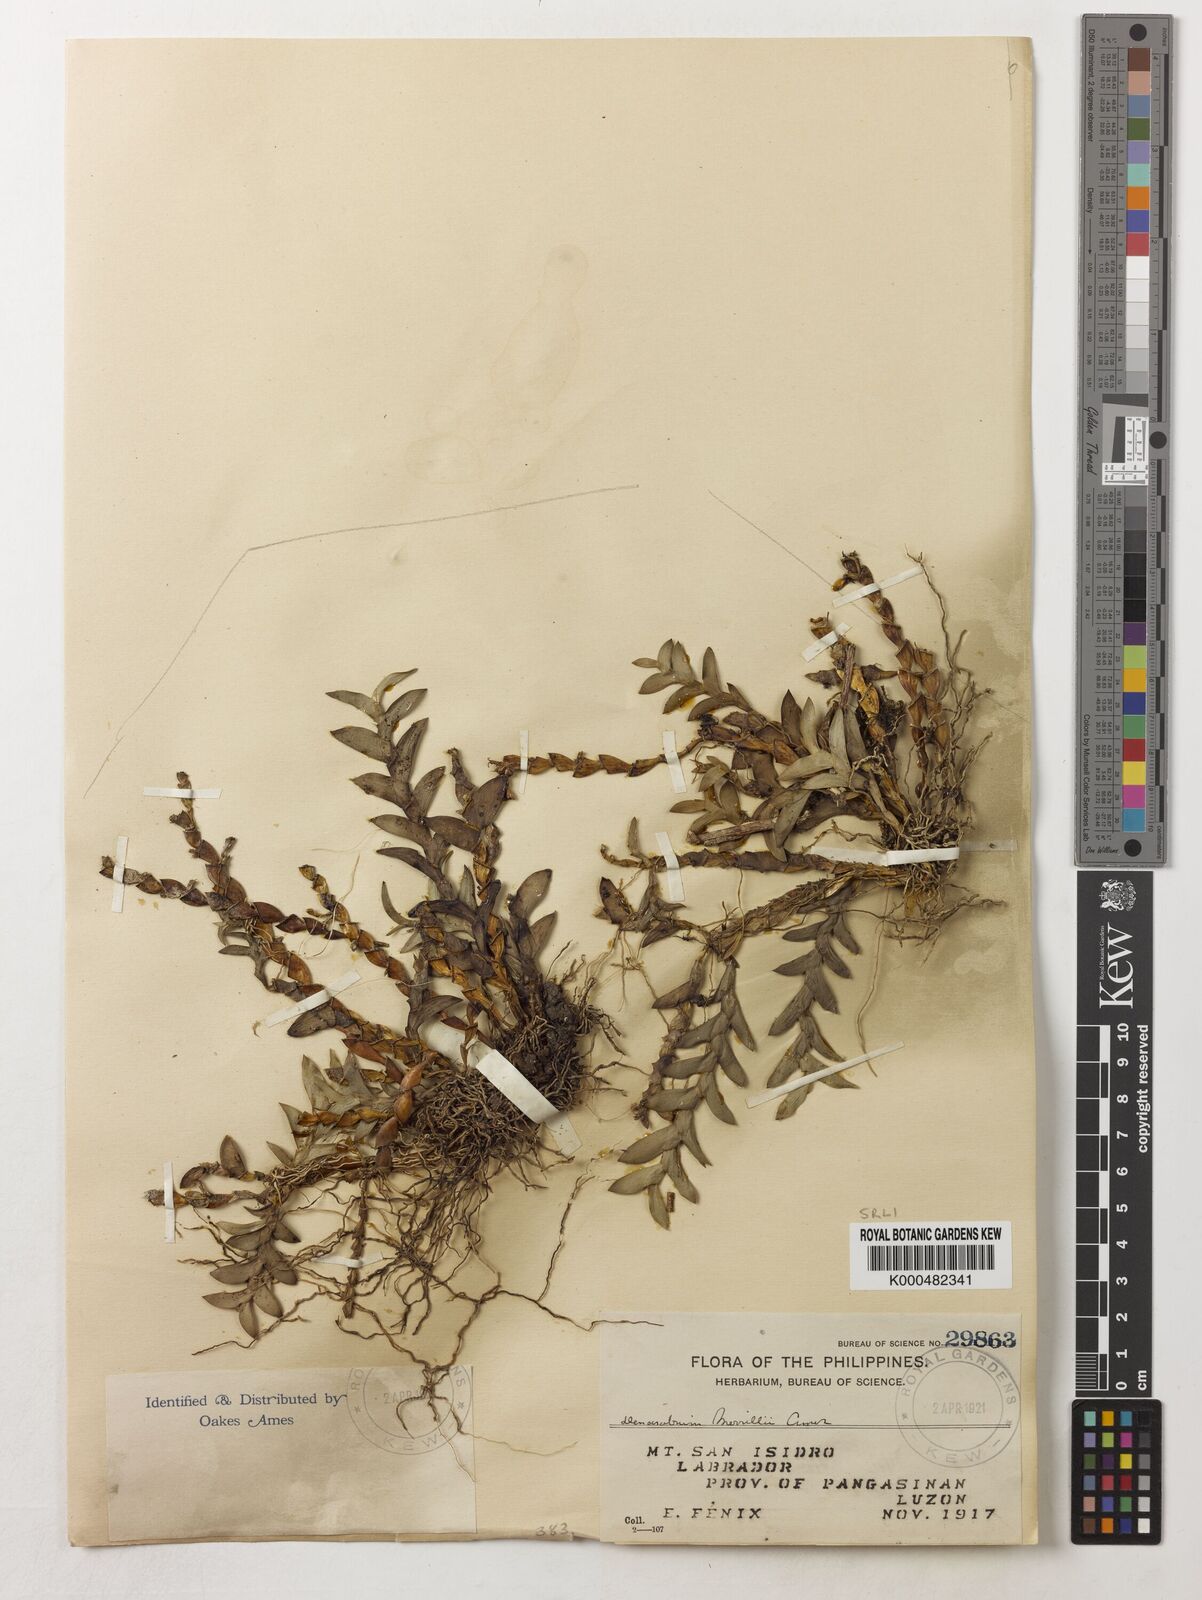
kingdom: Plantae
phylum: Tracheophyta
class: Liliopsida
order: Asparagales
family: Orchidaceae
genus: Dendrobium
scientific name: Dendrobium merrillii
